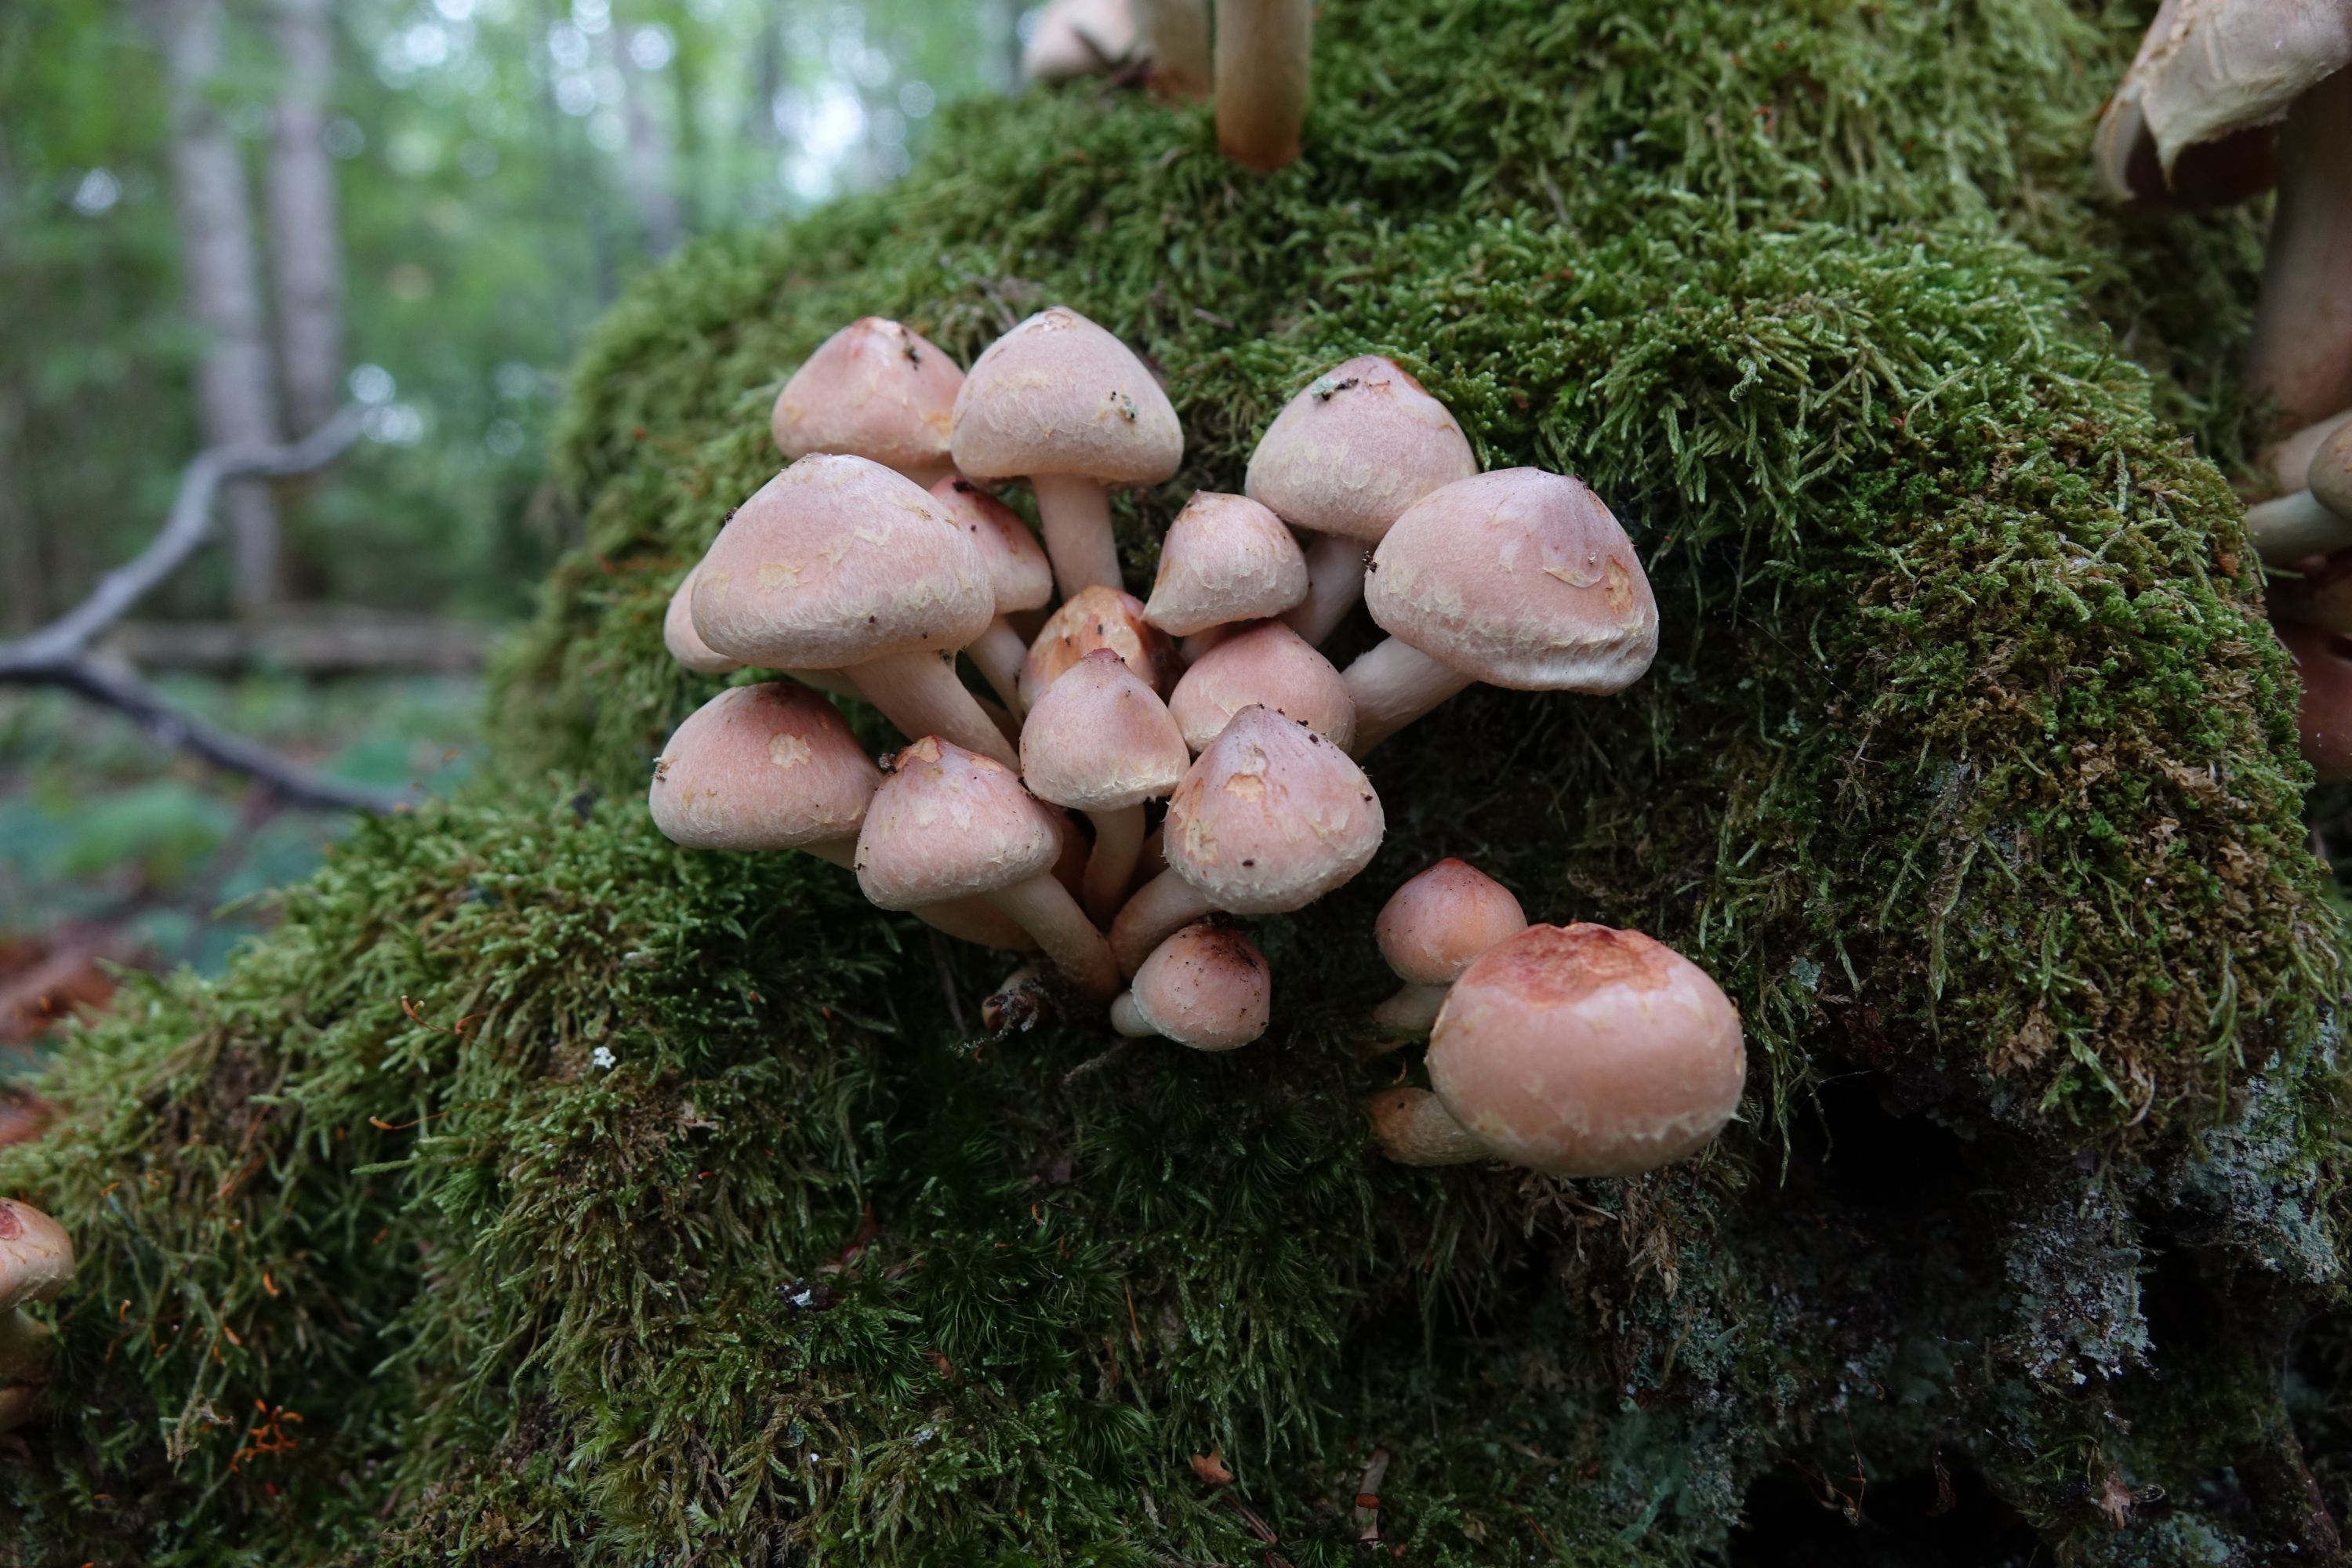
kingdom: Fungi
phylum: Basidiomycota
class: Agaricomycetes
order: Agaricales
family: Strophariaceae
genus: Hypholoma
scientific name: Hypholoma lateritium
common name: Brick caps
